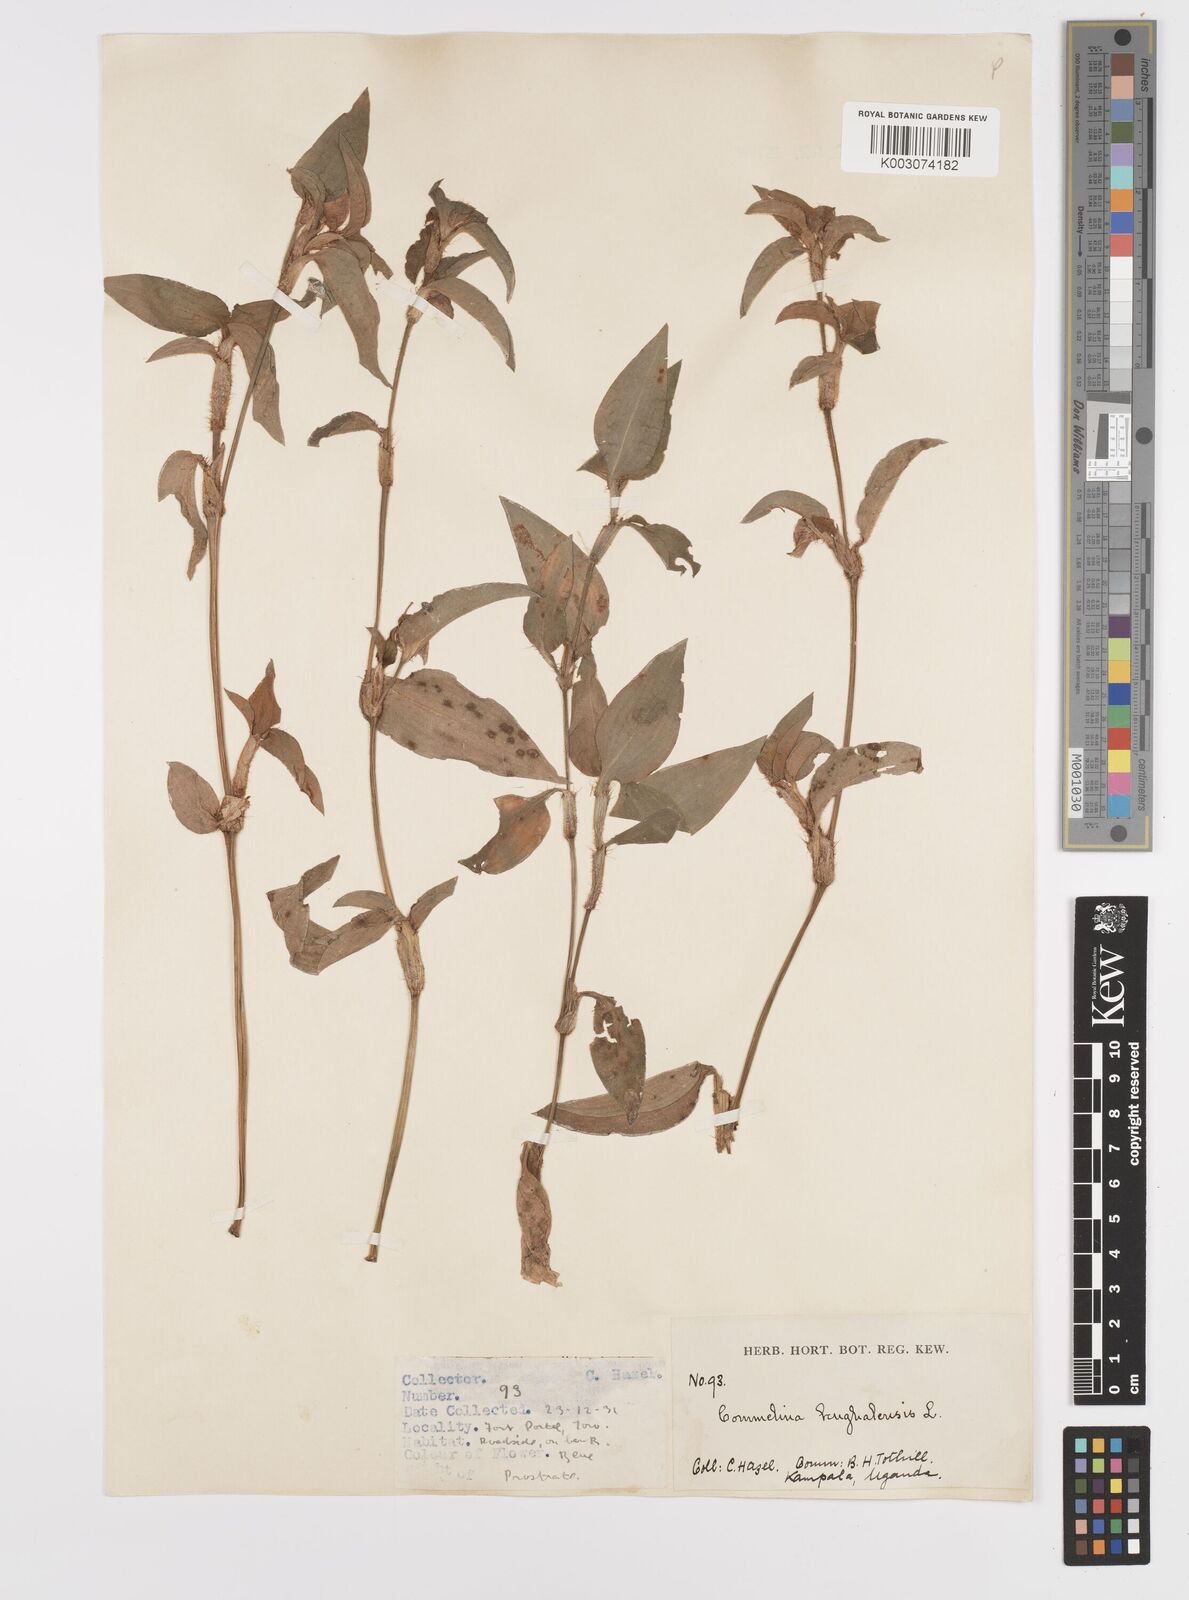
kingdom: Plantae
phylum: Tracheophyta
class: Liliopsida
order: Commelinales
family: Commelinaceae
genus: Commelina
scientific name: Commelina benghalensis
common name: Jio
